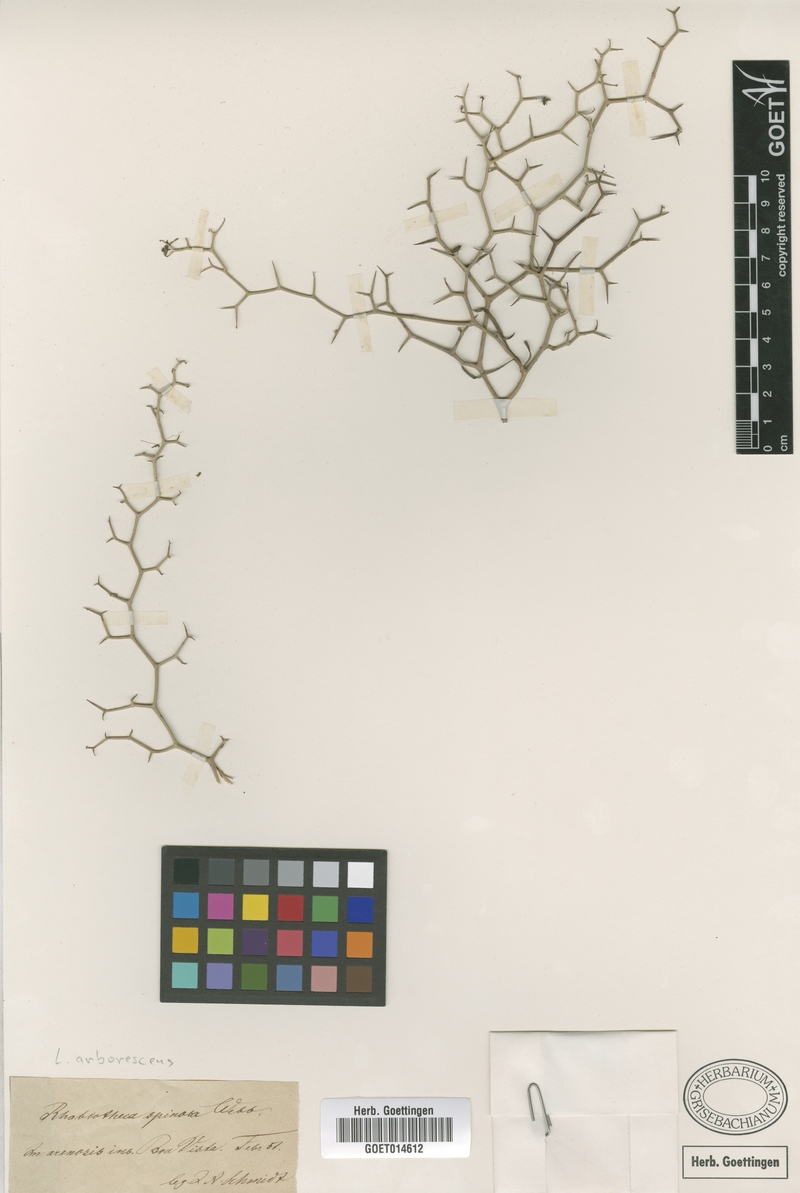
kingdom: Plantae
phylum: Tracheophyta
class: Magnoliopsida
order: Asterales
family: Asteraceae
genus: Launaea
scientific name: Launaea arborescens
